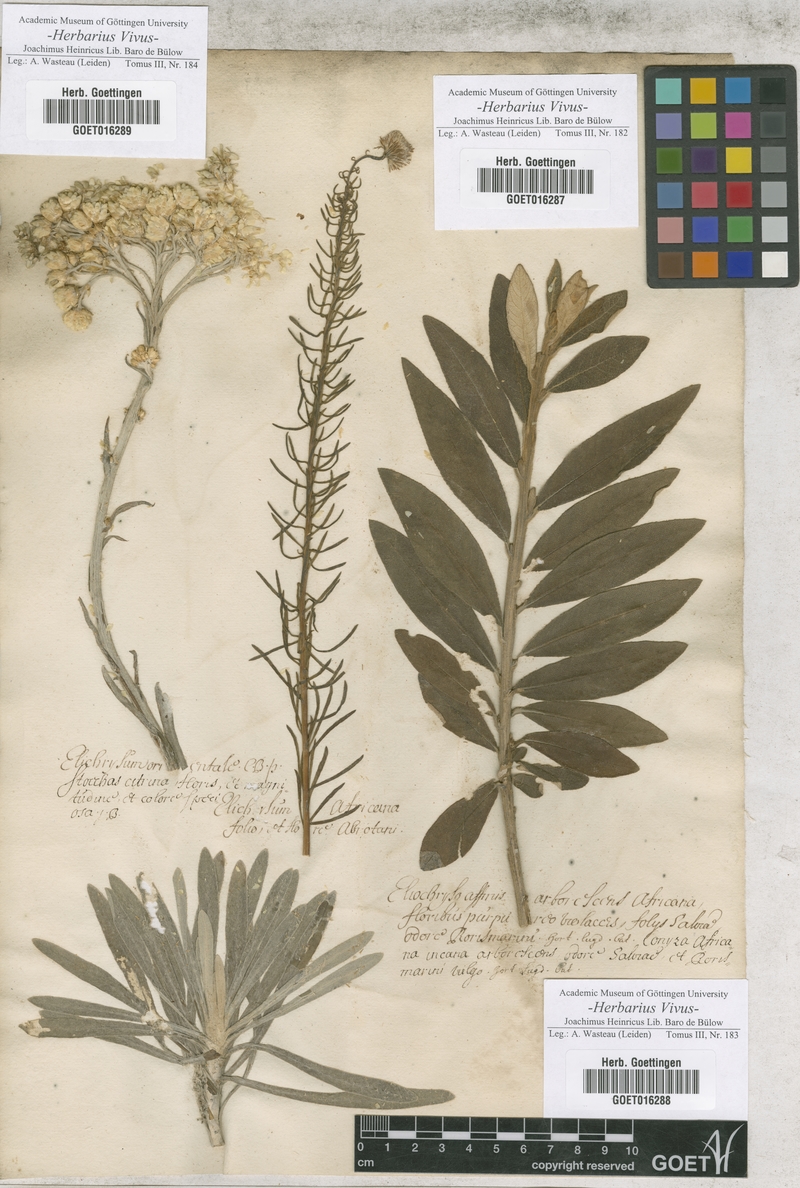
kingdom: Plantae
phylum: Tracheophyta
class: Magnoliopsida
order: Asterales
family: Asteraceae
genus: Helichrysum
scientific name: Helichrysum
